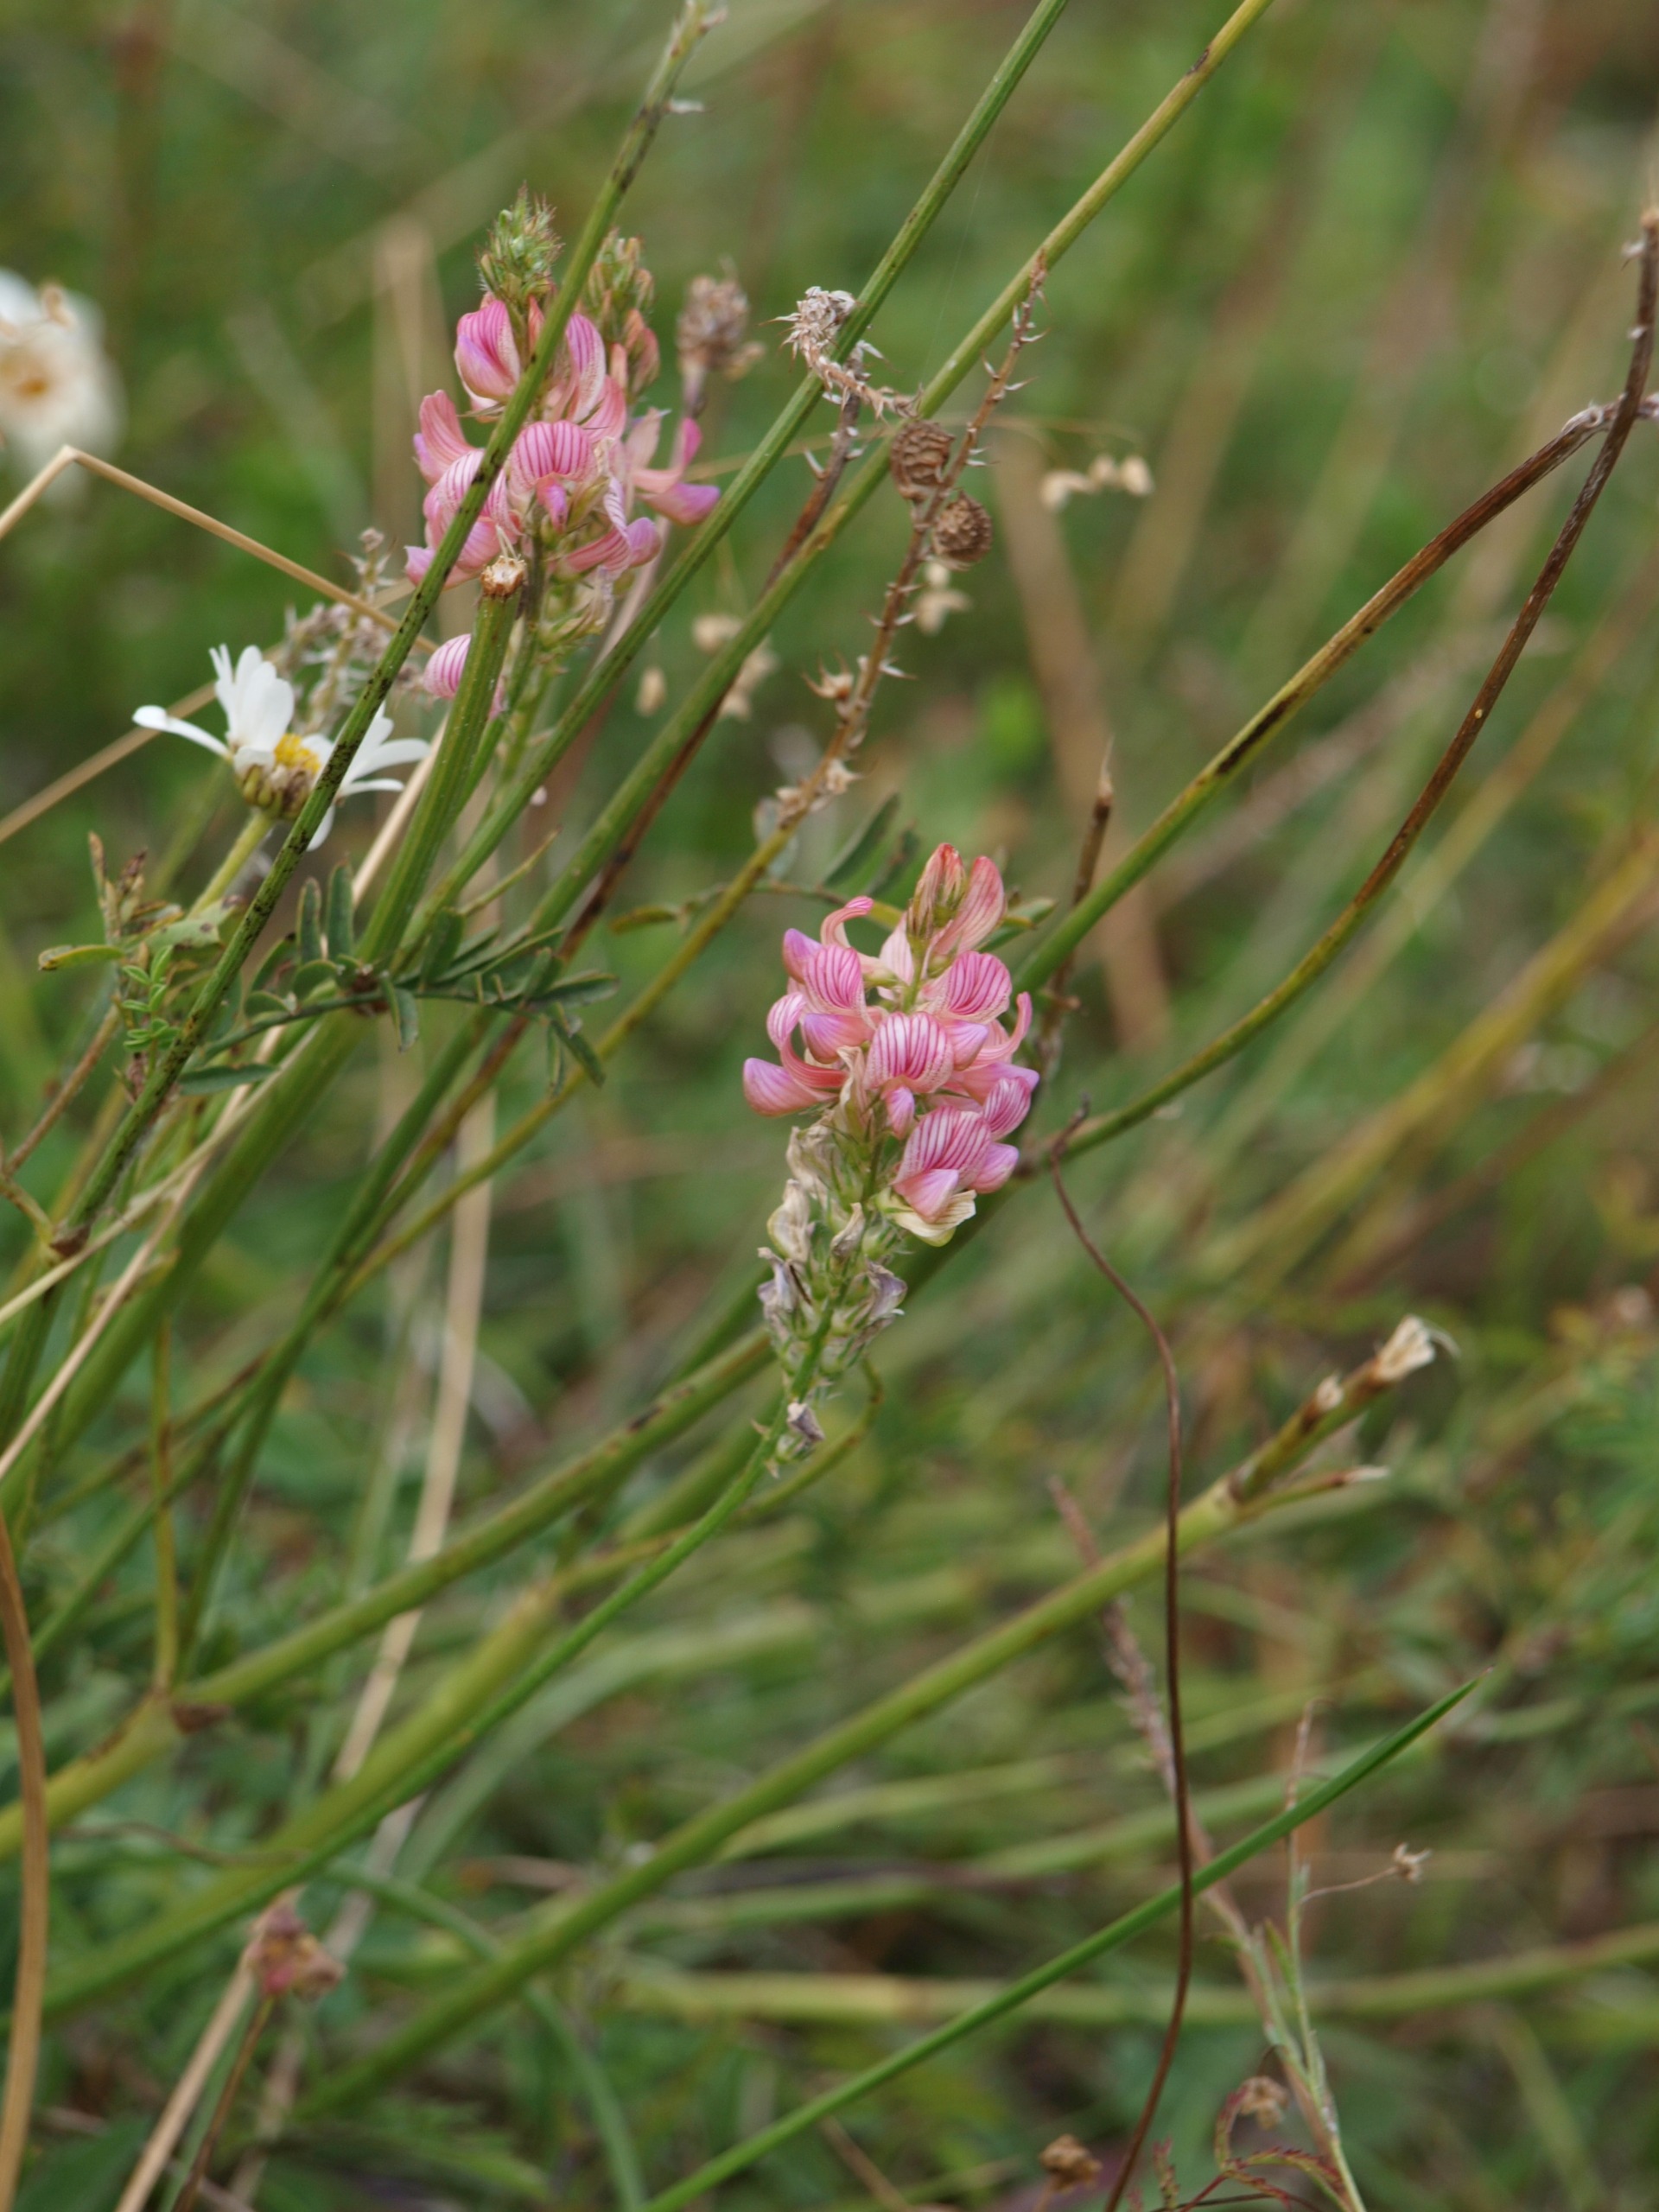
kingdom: Plantae
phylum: Tracheophyta
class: Magnoliopsida
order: Fabales
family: Fabaceae
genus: Onobrychis
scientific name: Onobrychis viciifolia
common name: Esparsette
